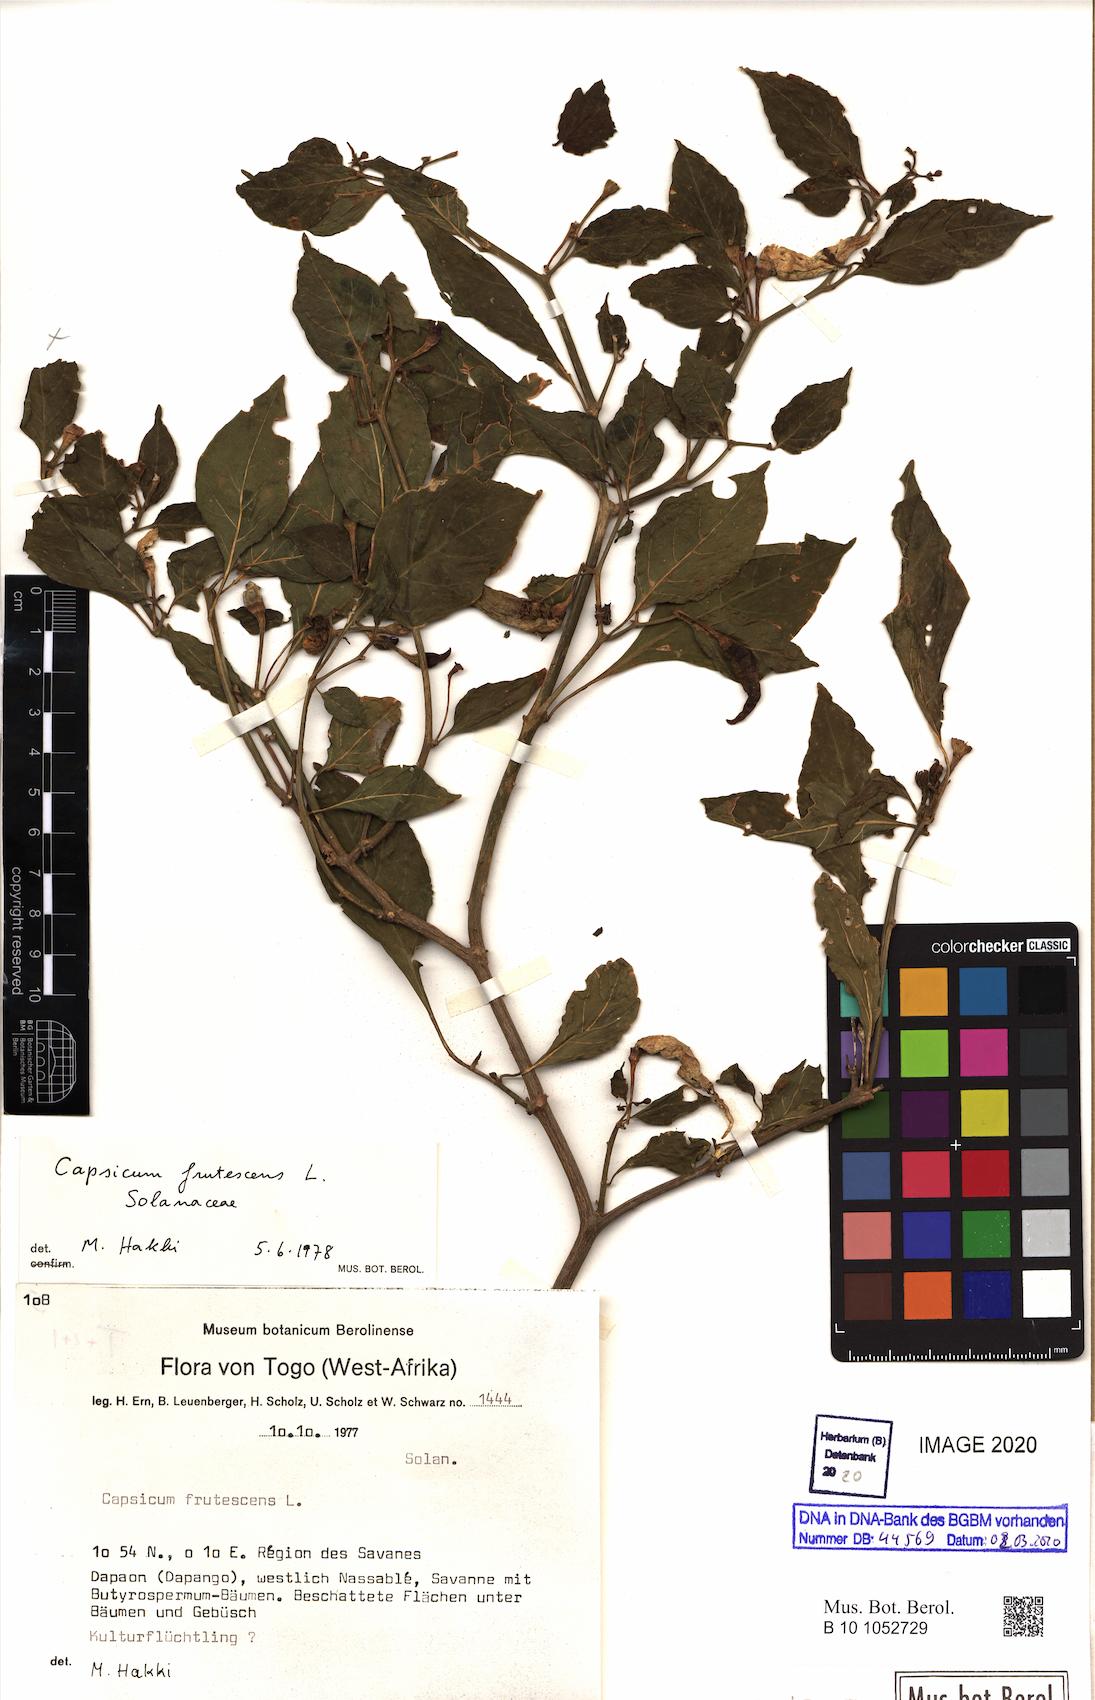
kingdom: Plantae
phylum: Tracheophyta
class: Magnoliopsida
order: Solanales
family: Solanaceae
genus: Capsicum
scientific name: Capsicum frutescens
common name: Bird pepper
